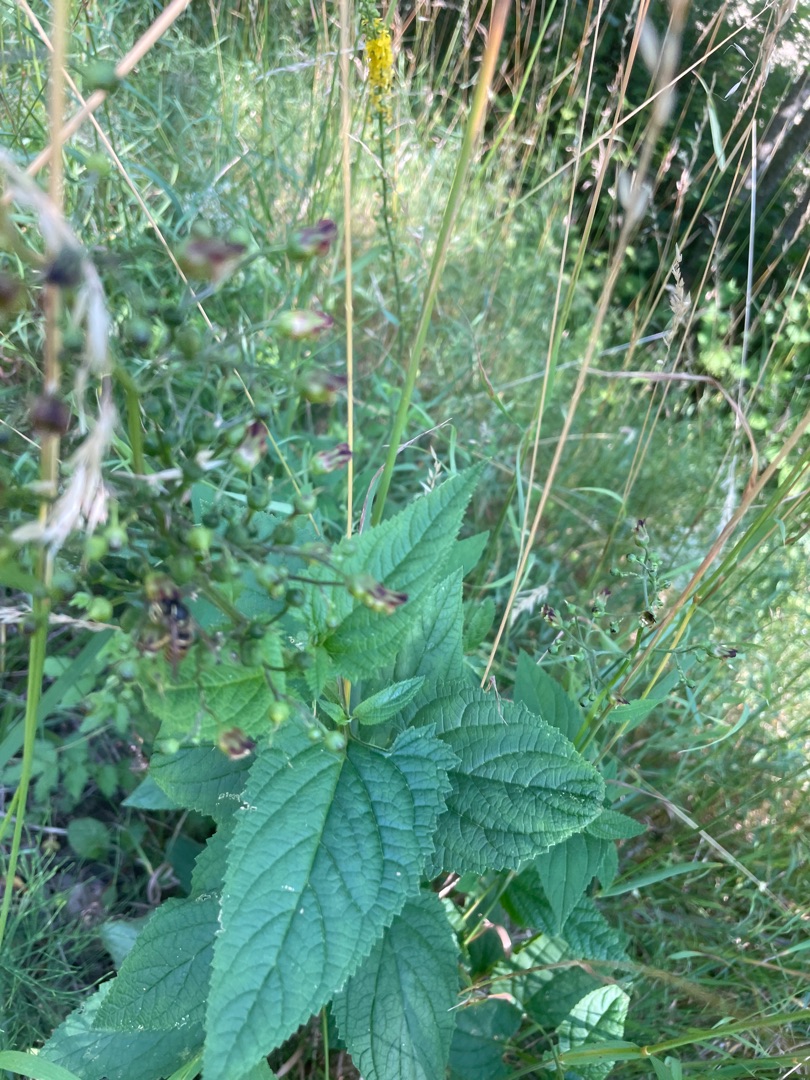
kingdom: Plantae
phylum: Tracheophyta
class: Magnoliopsida
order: Lamiales
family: Scrophulariaceae
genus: Scrophularia
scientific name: Scrophularia nodosa
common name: Knoldet brunrod
